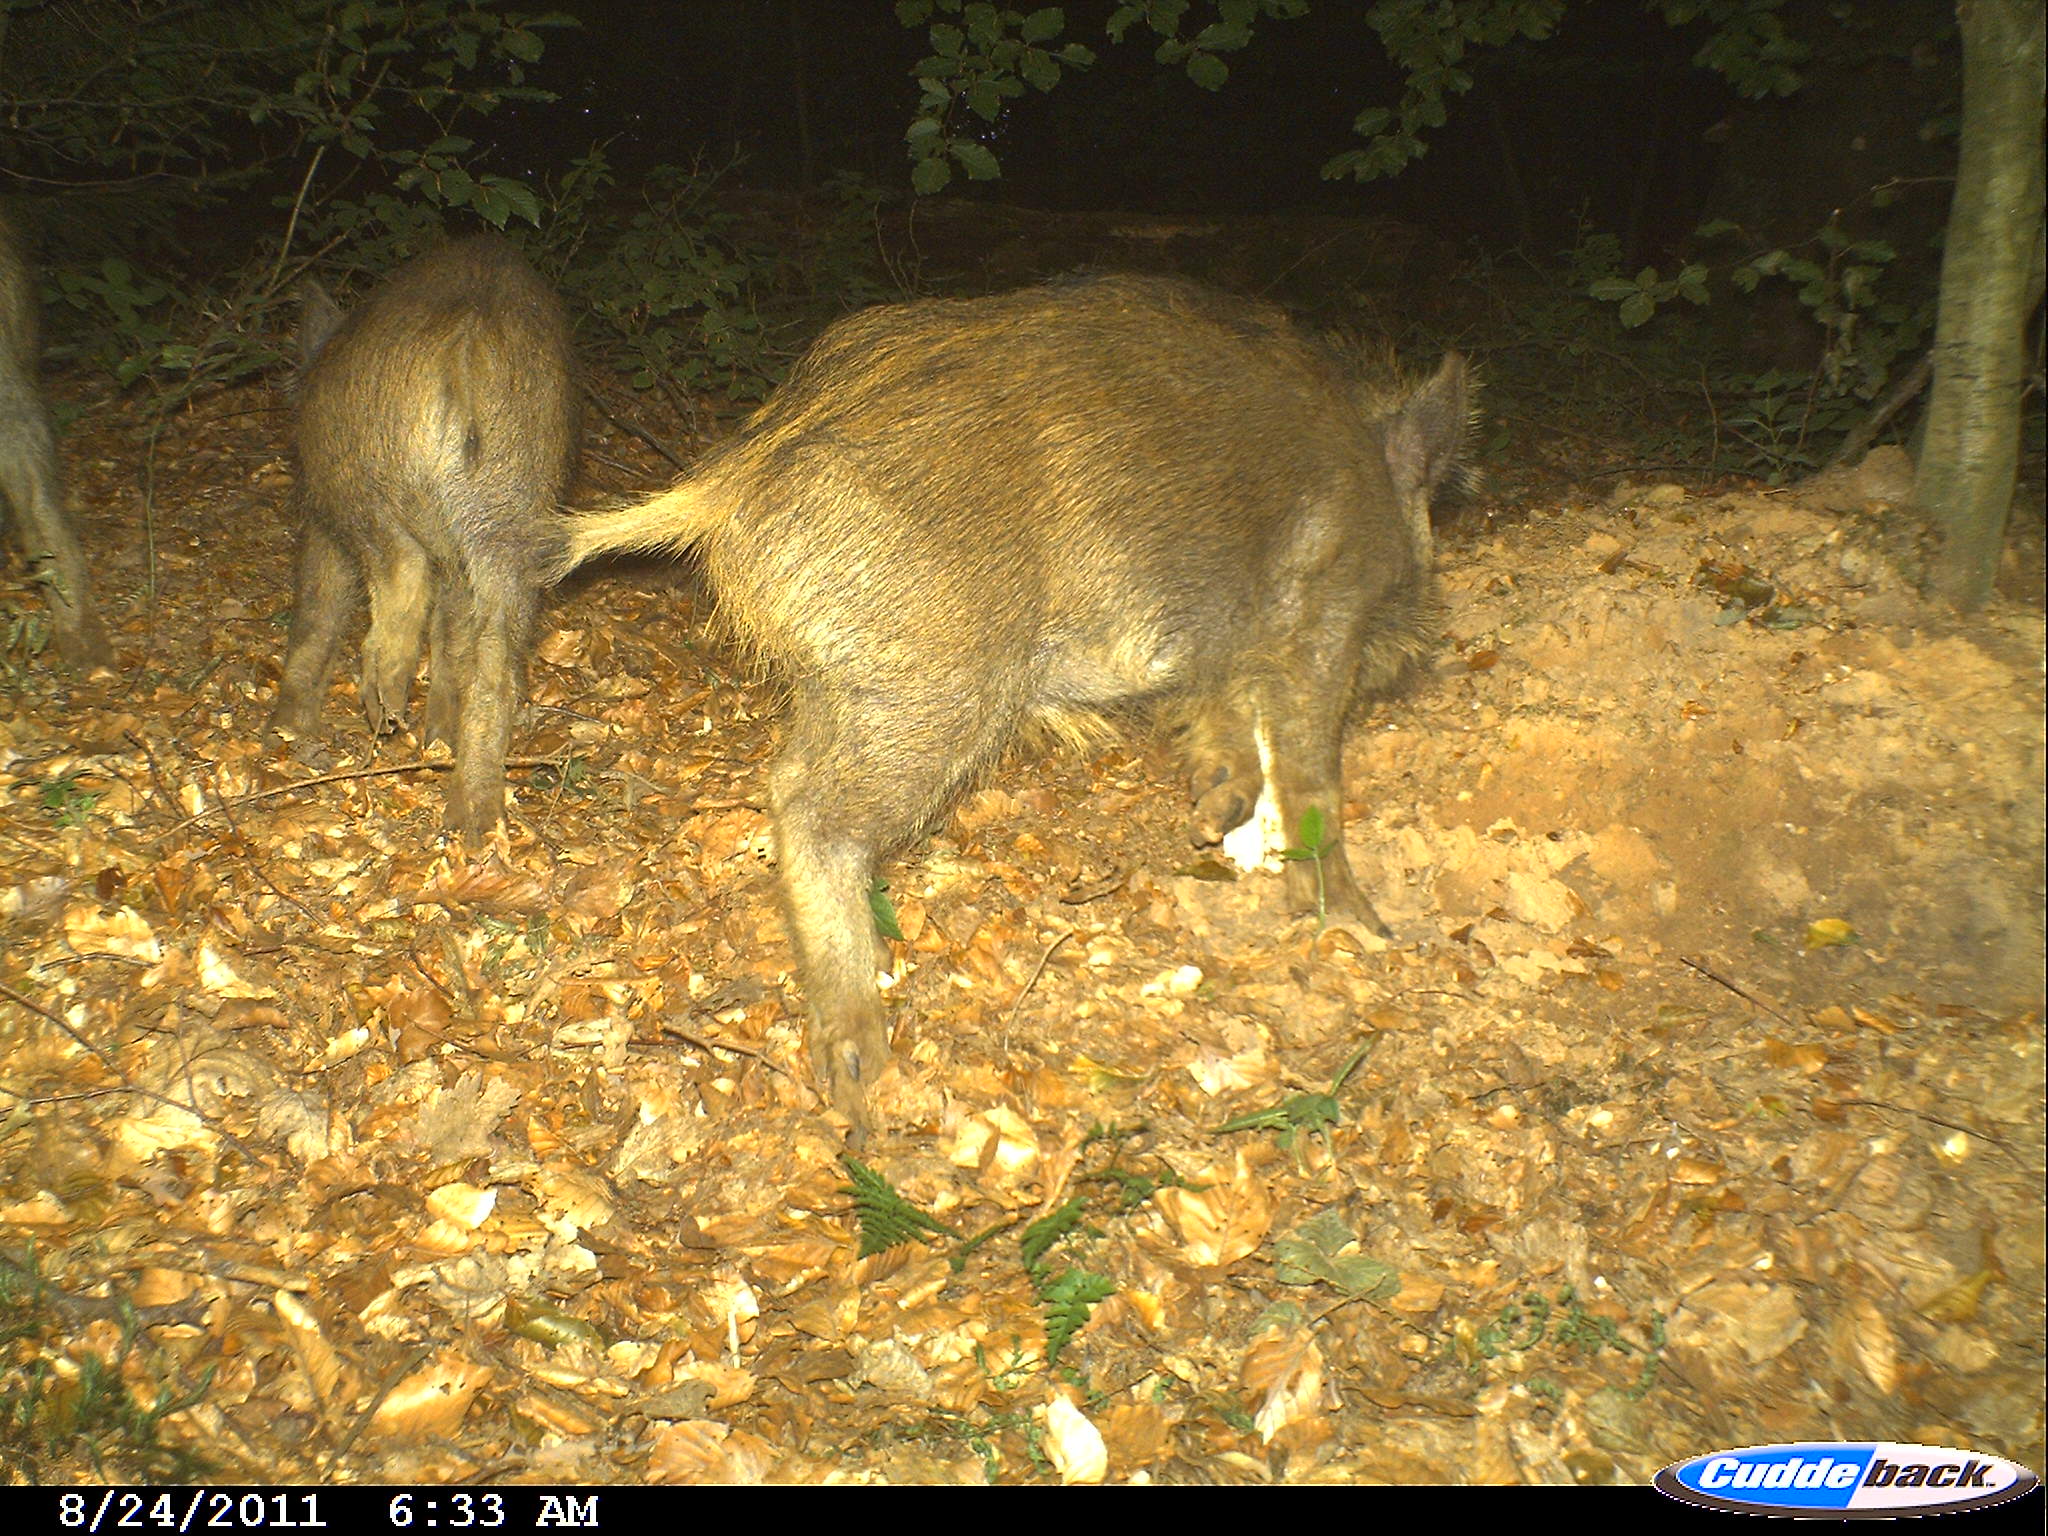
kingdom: Animalia
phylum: Chordata
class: Mammalia
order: Artiodactyla
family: Suidae
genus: Sus
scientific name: Sus scrofa
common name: Wild boar
